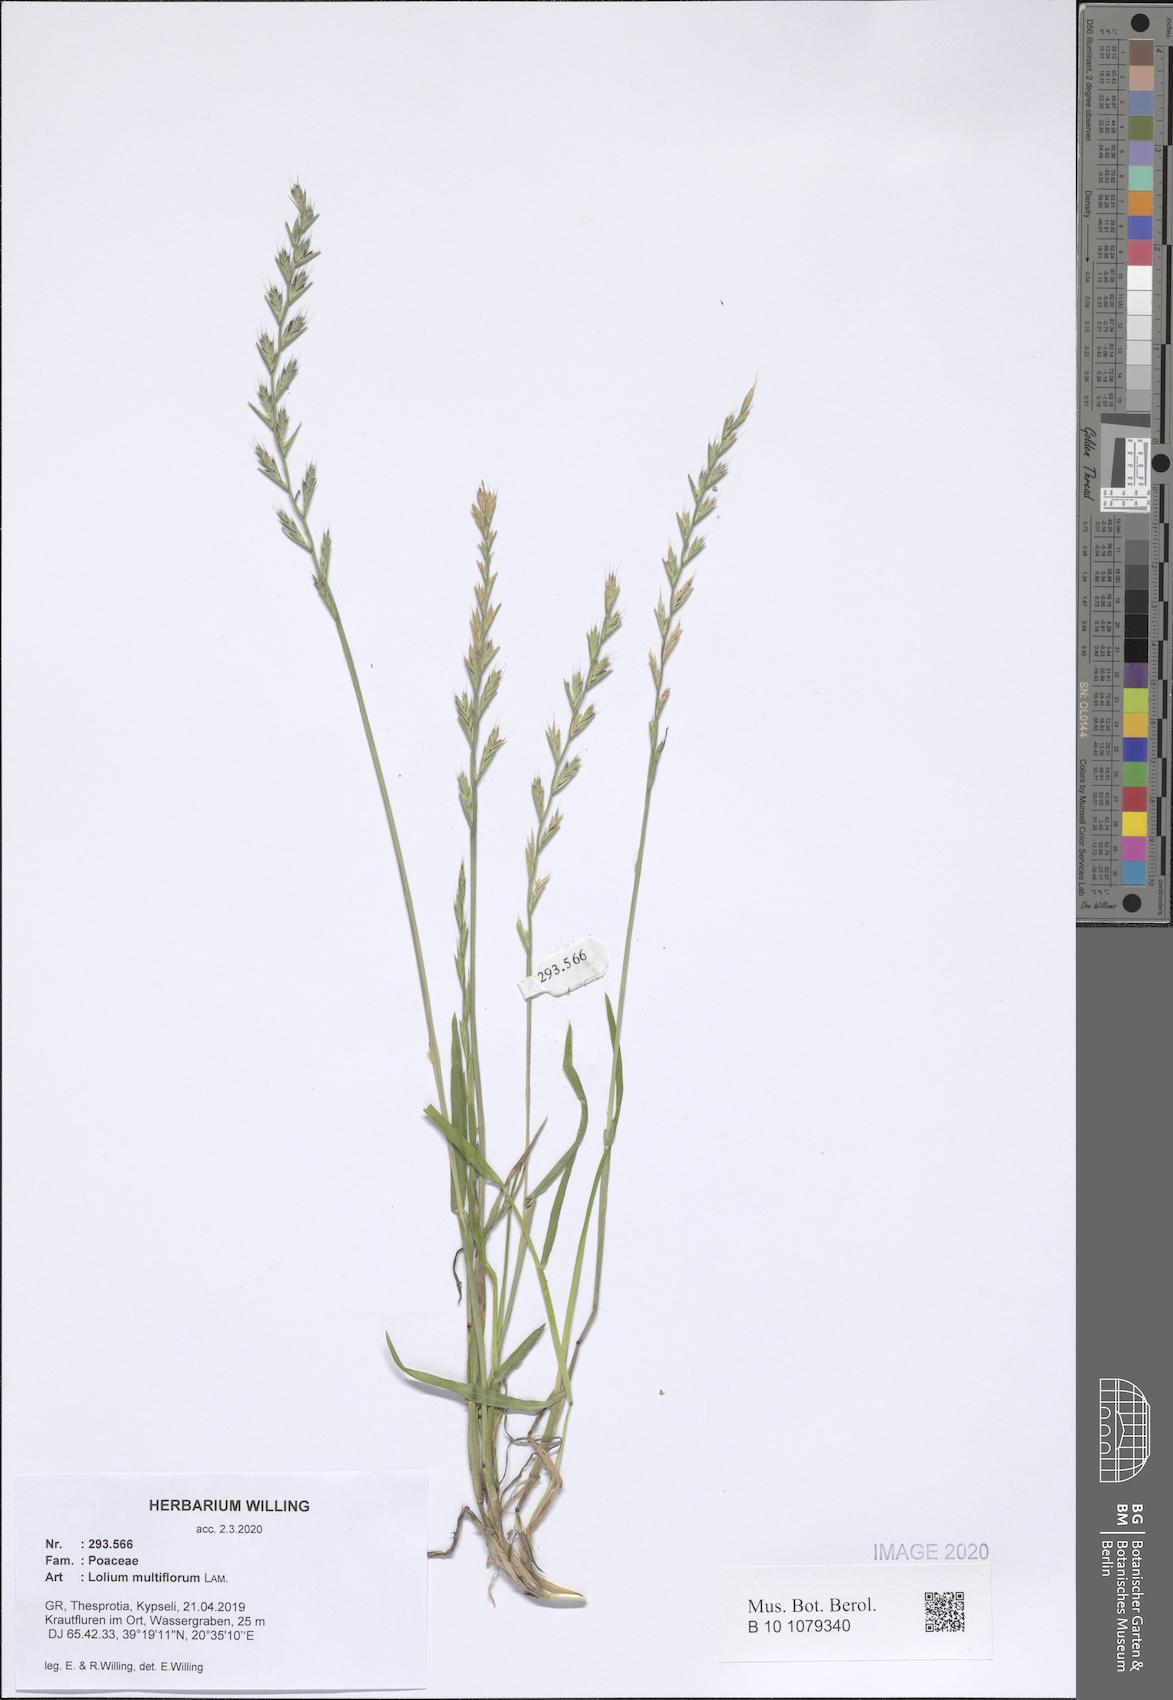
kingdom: Plantae
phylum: Tracheophyta
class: Liliopsida
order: Poales
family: Poaceae
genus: Lolium
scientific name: Lolium multiflorum
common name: Annual ryegrass
